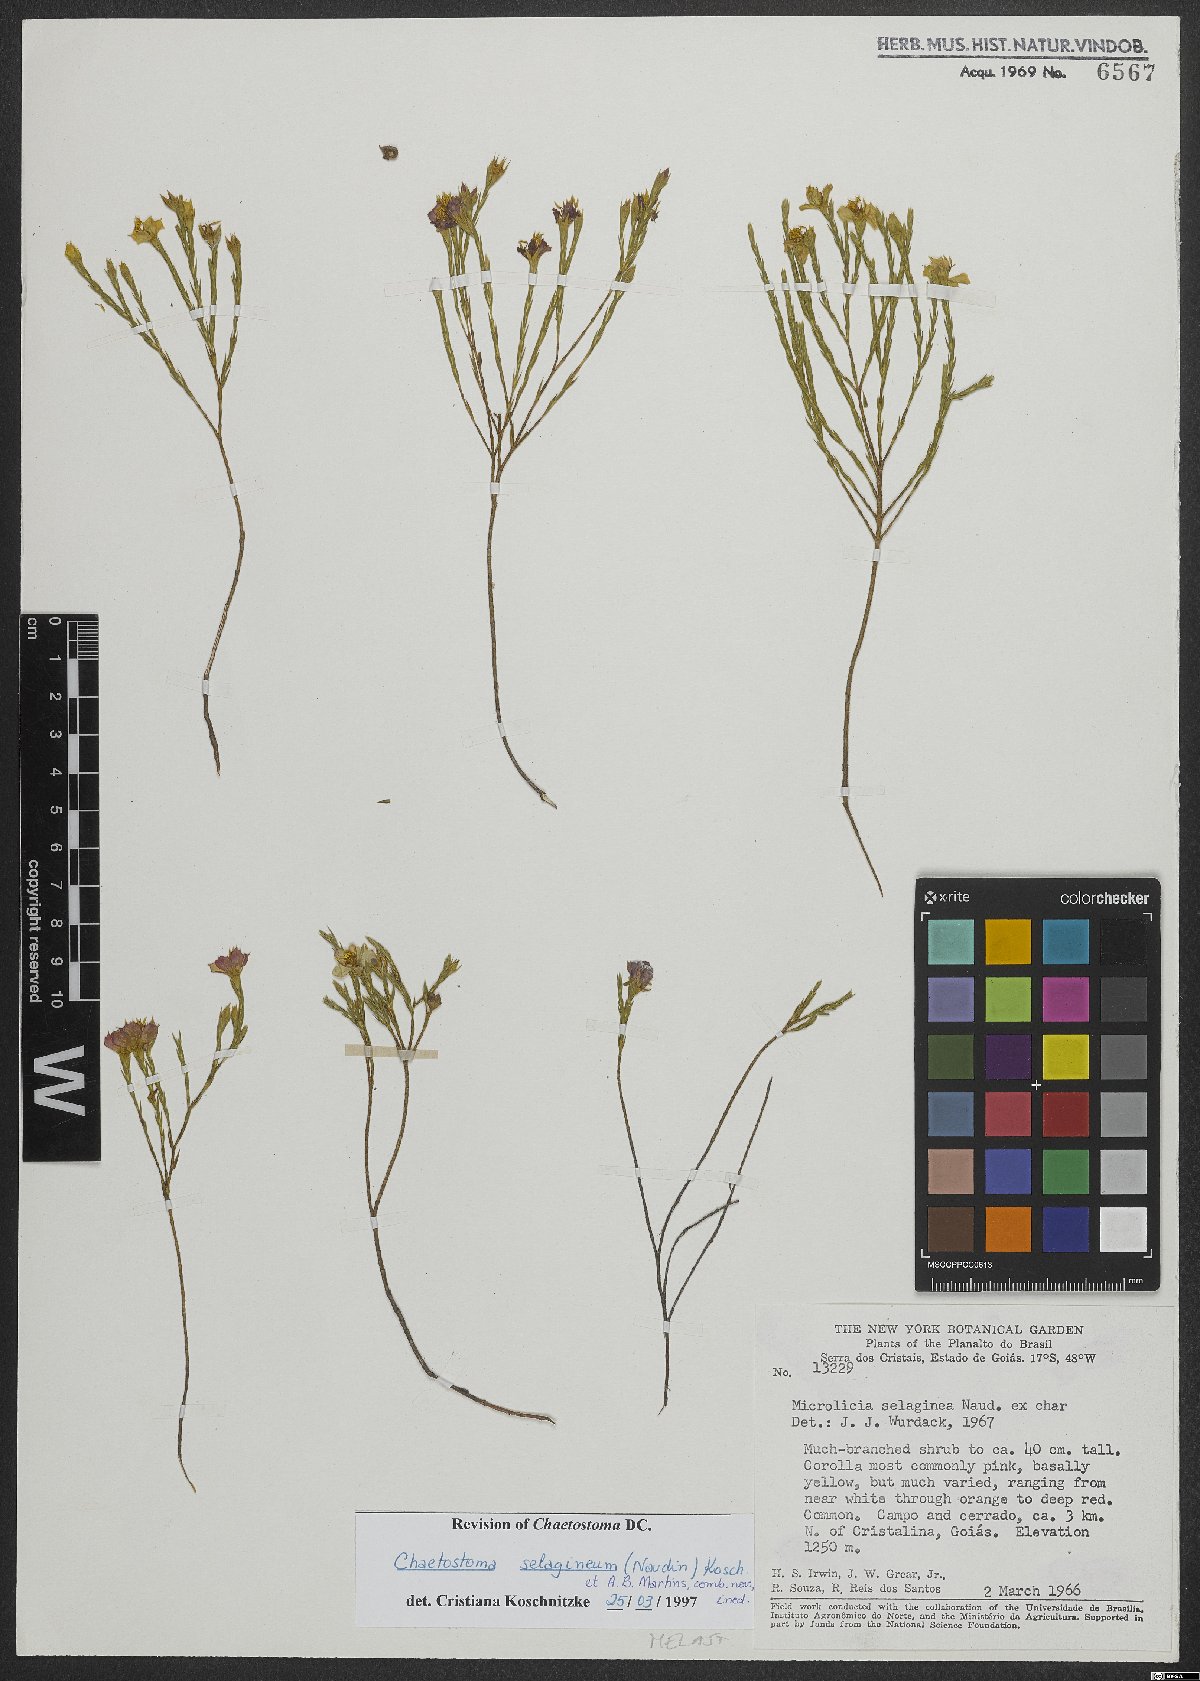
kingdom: Plantae
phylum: Tracheophyta
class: Magnoliopsida
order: Myrtales
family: Melastomataceae
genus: Microlicia
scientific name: Microlicia selaginea
